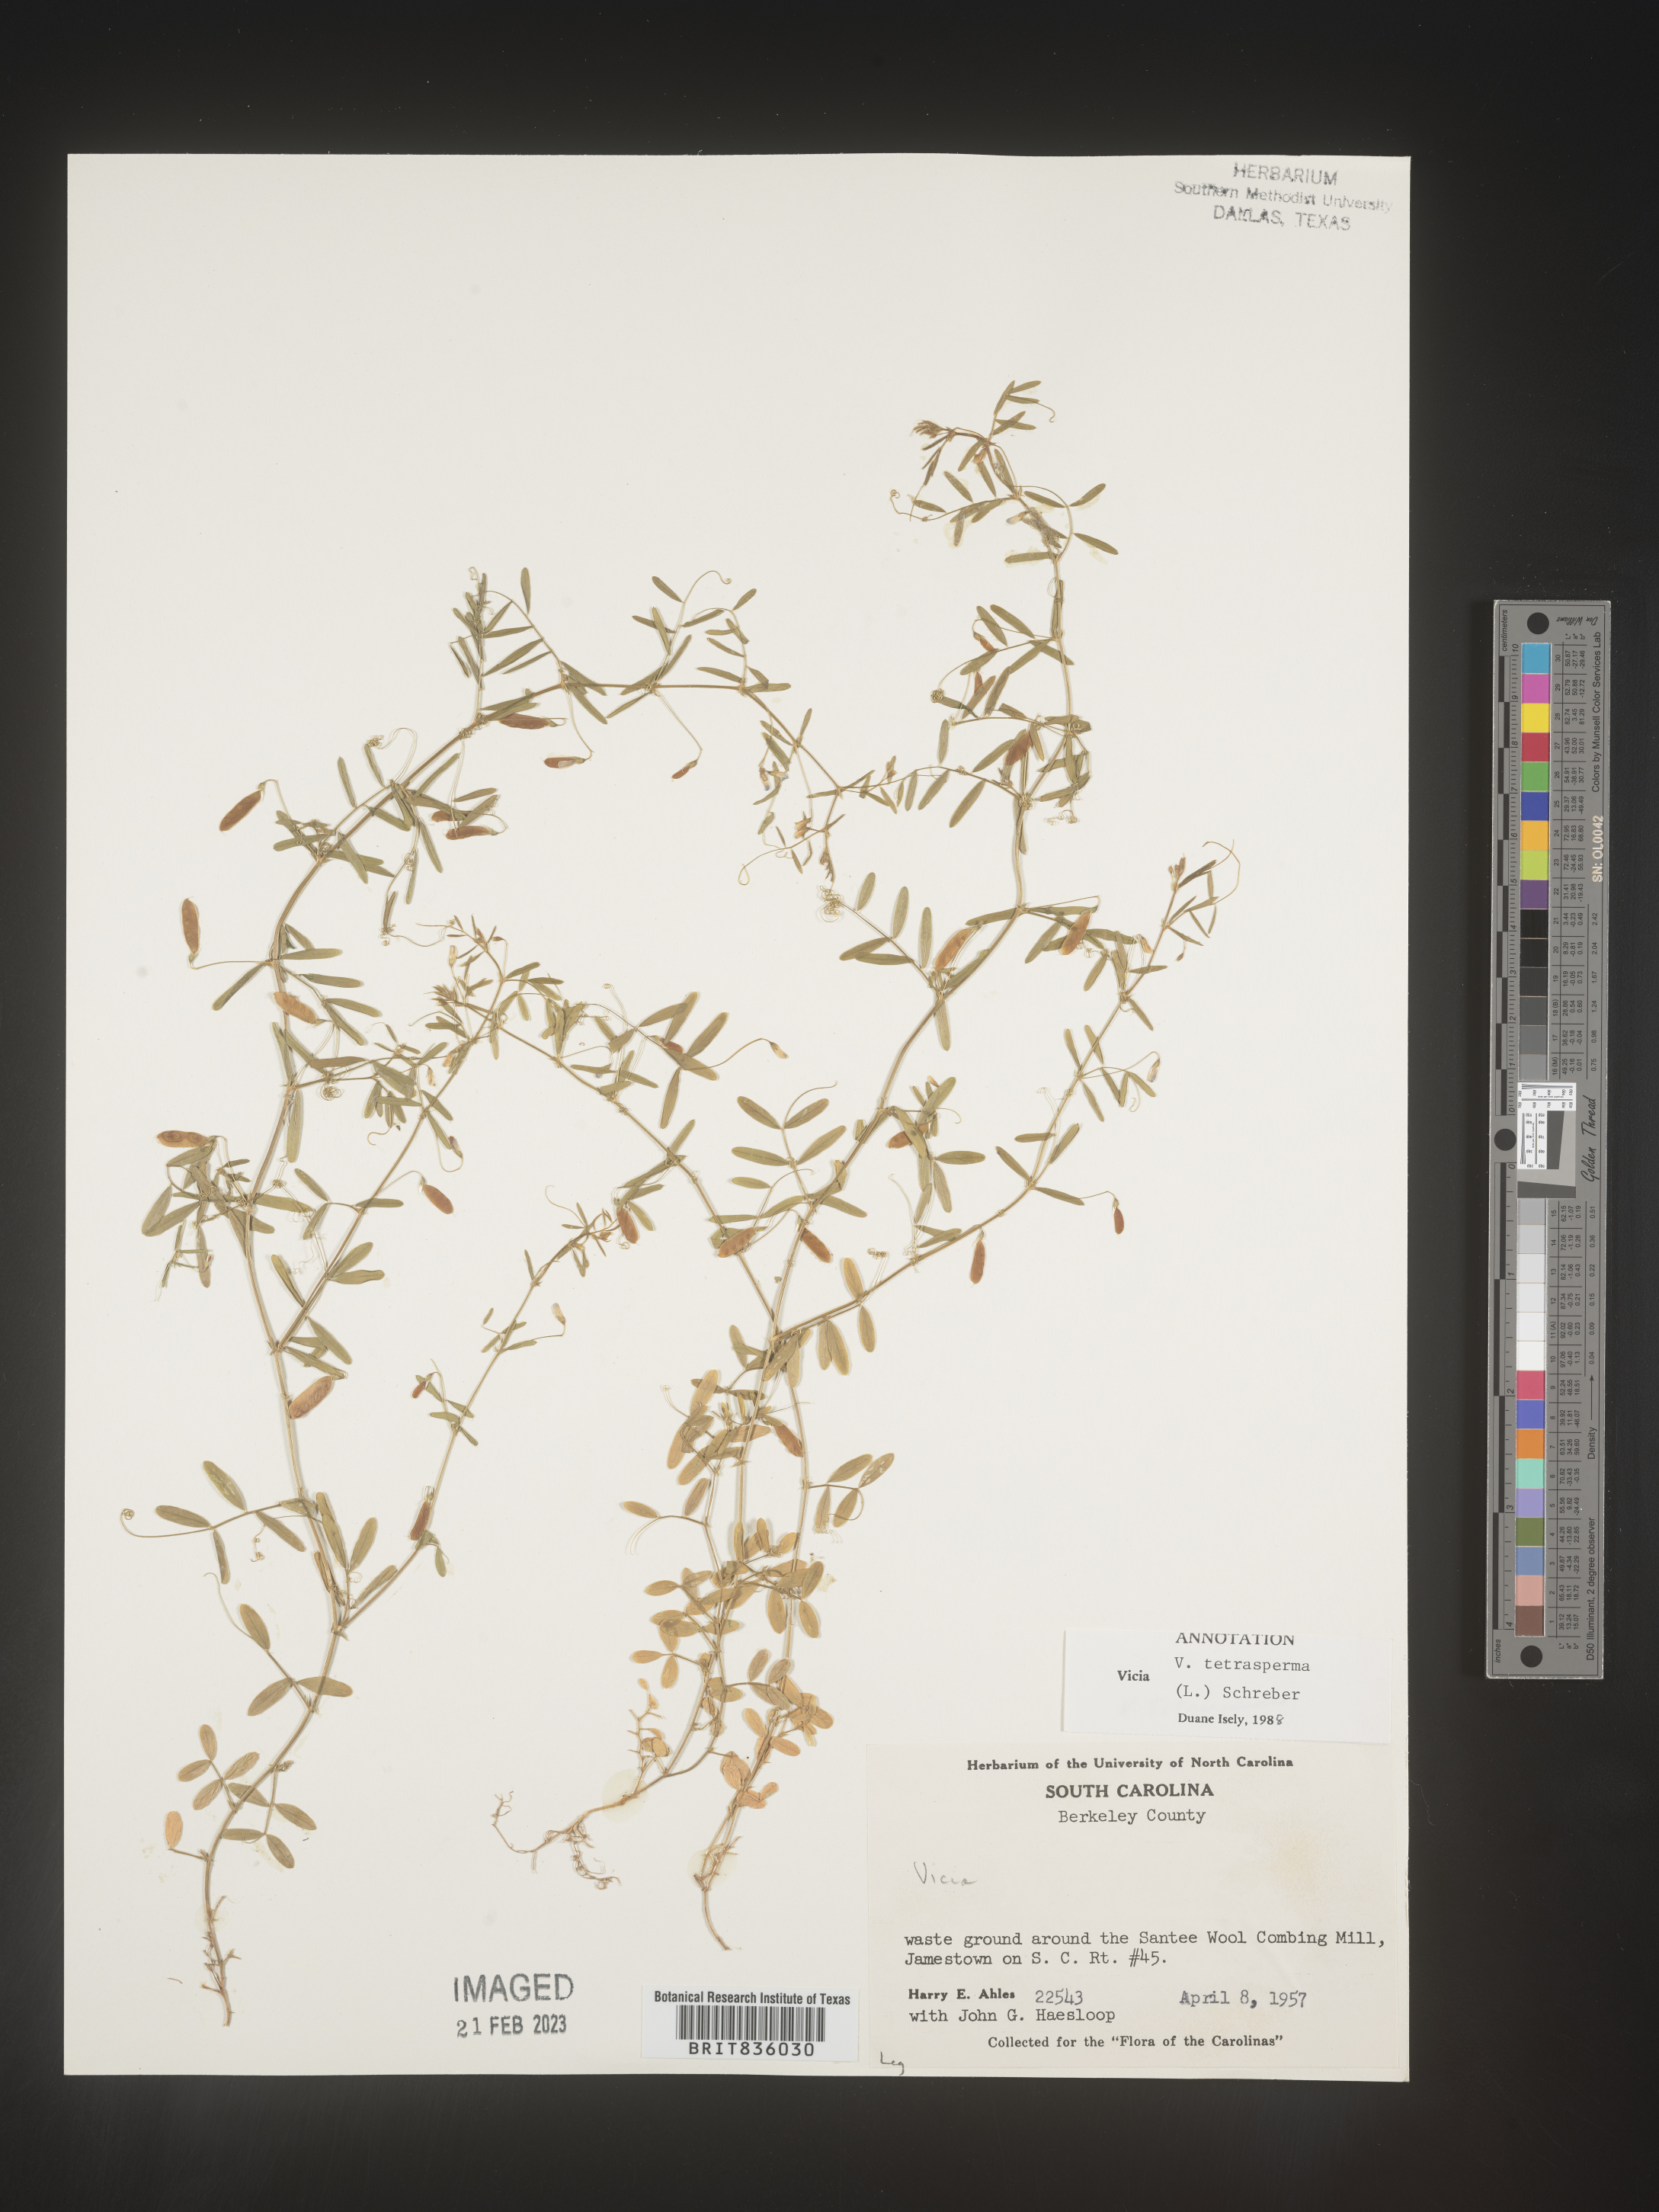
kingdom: Plantae
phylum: Tracheophyta
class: Magnoliopsida
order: Fabales
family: Fabaceae
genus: Vicia
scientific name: Vicia tetrasperma
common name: Smooth tare
